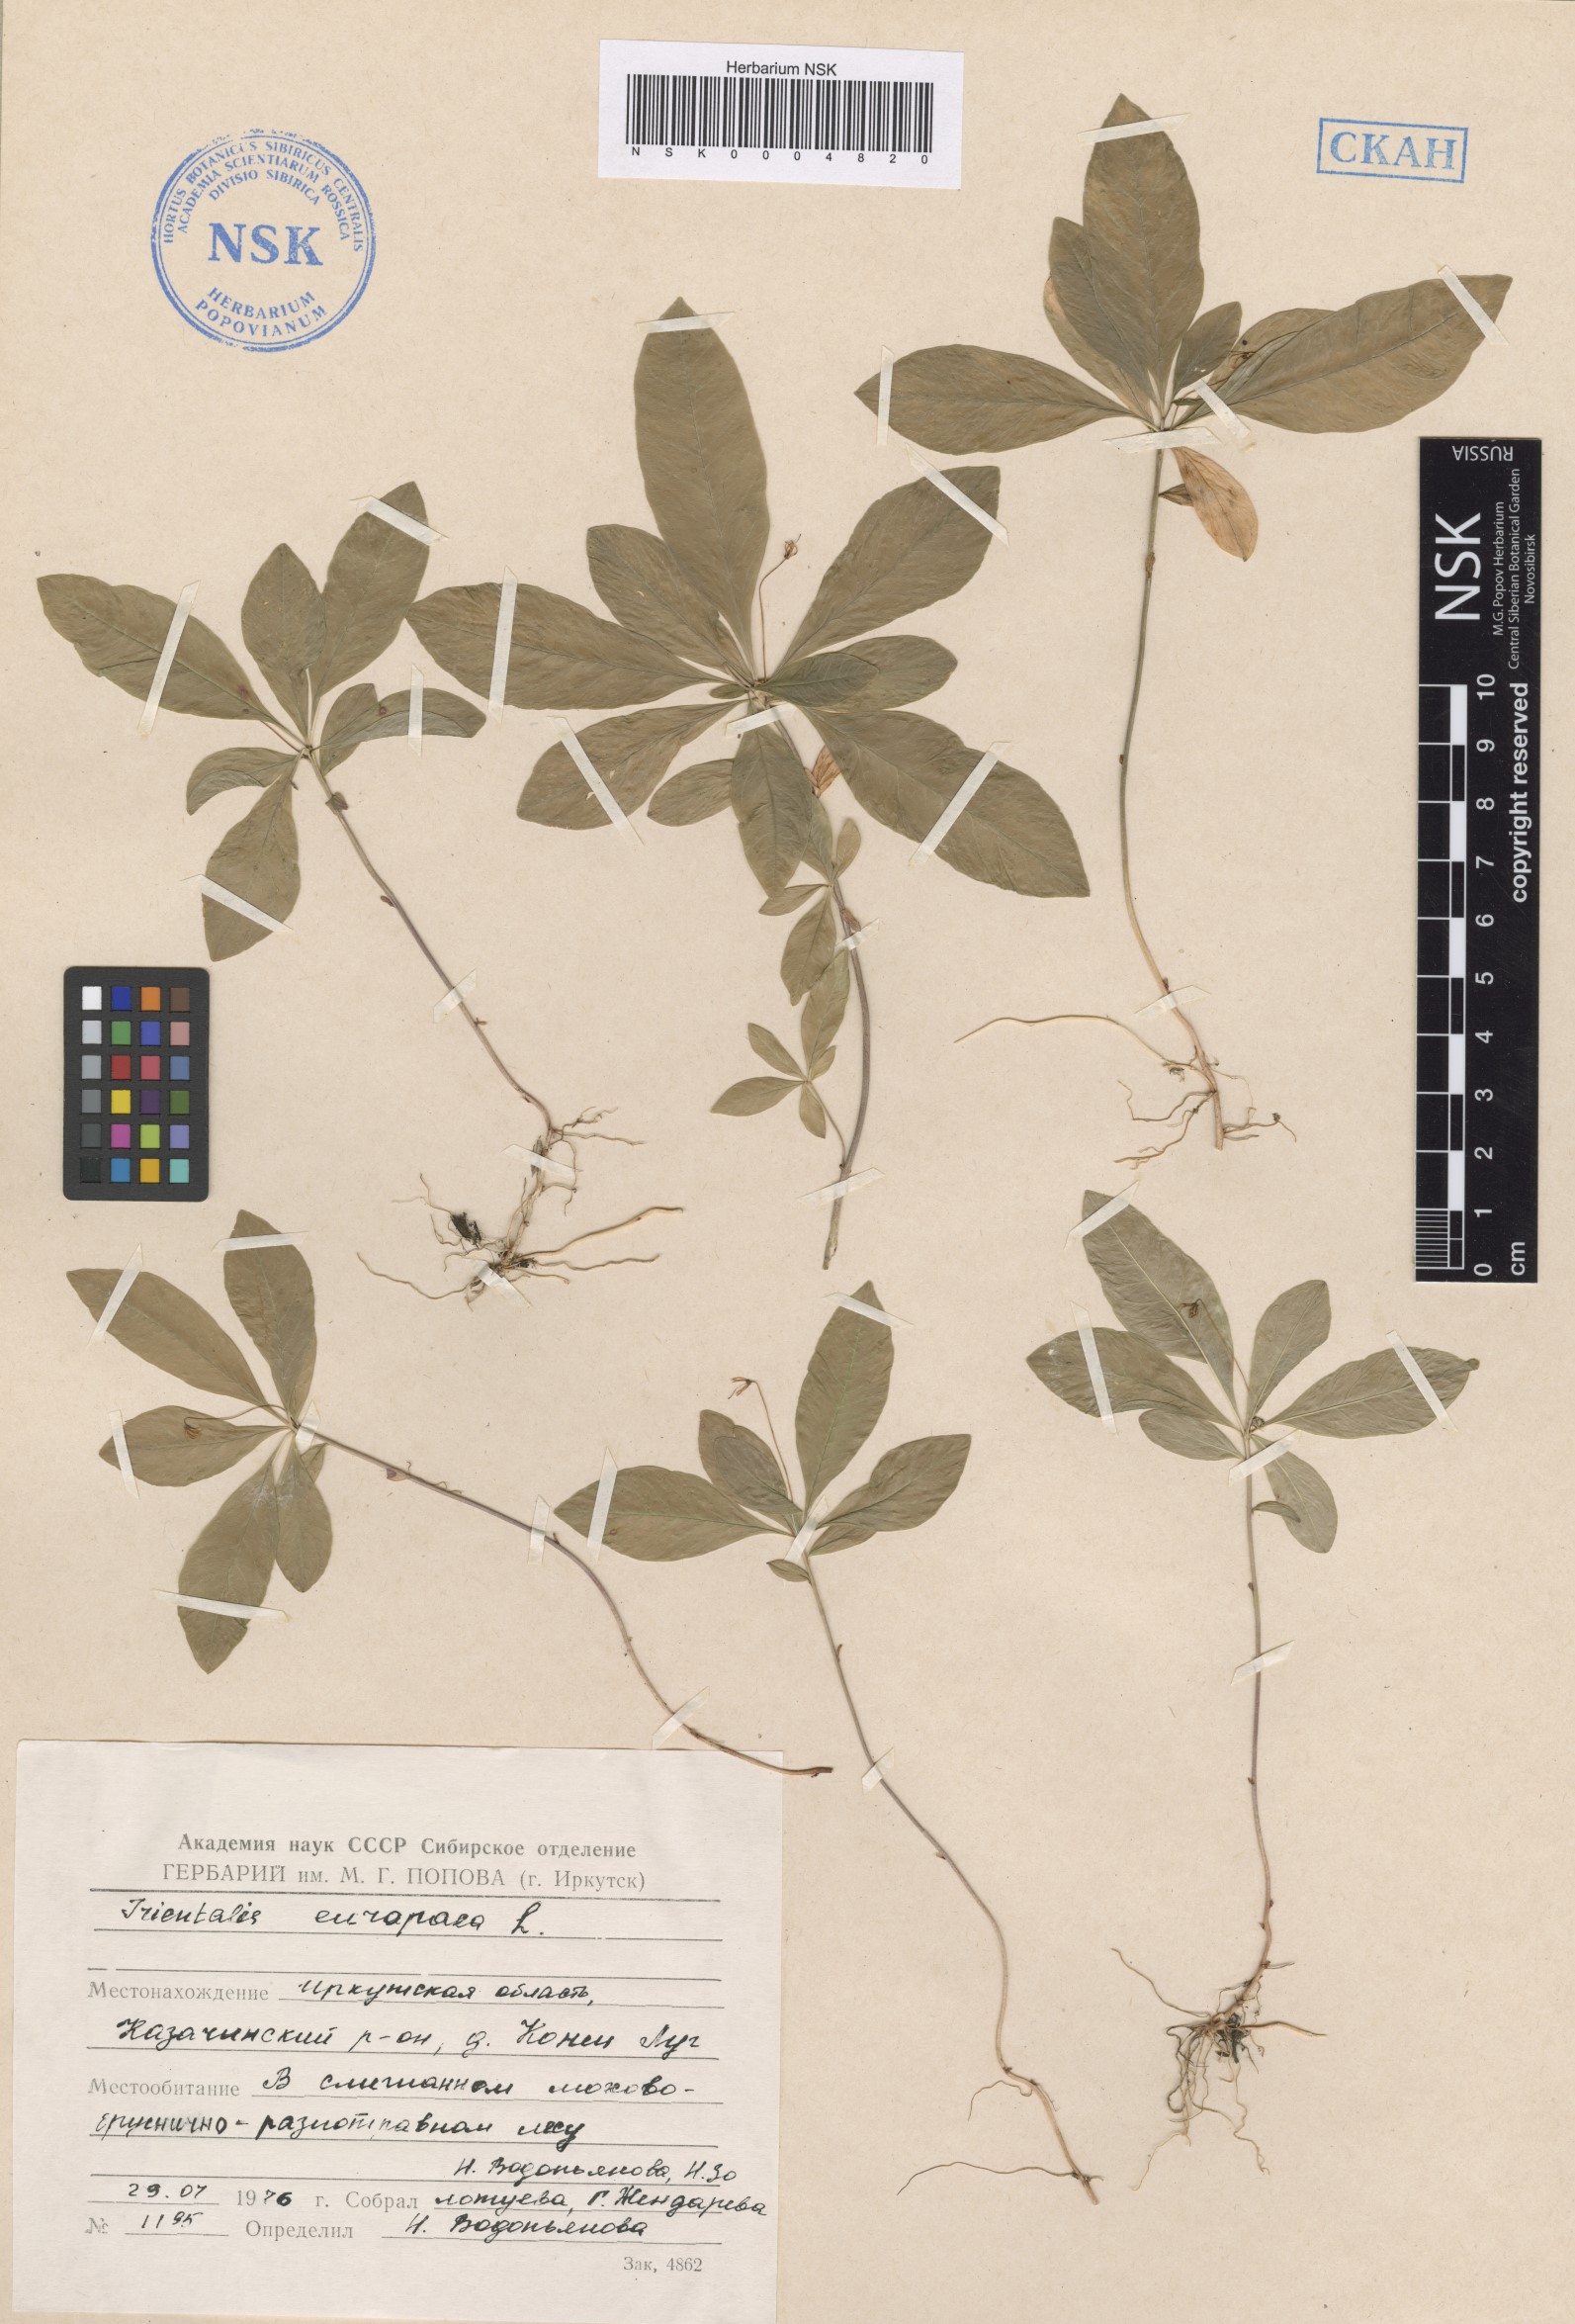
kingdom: Plantae
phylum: Tracheophyta
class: Magnoliopsida
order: Ericales
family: Primulaceae
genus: Lysimachia
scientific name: Lysimachia europaea
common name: Arctic starflower
